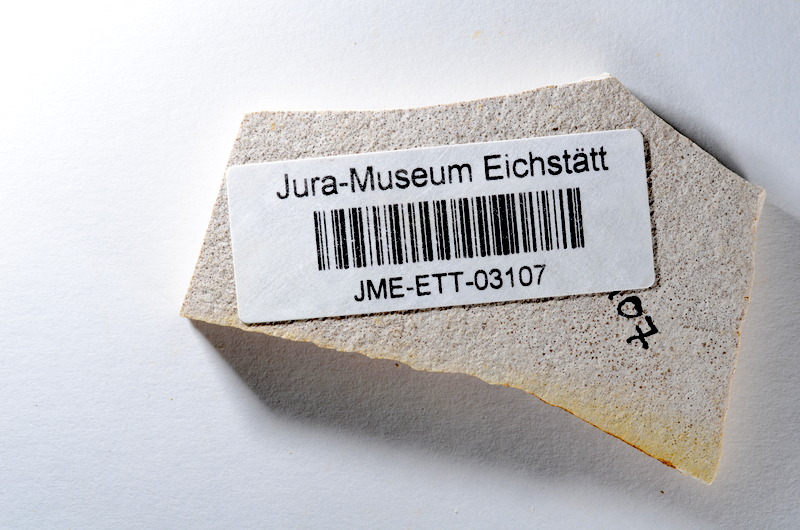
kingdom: Animalia
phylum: Chordata
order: Salmoniformes
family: Orthogonikleithridae
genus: Orthogonikleithrus
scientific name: Orthogonikleithrus hoelli
